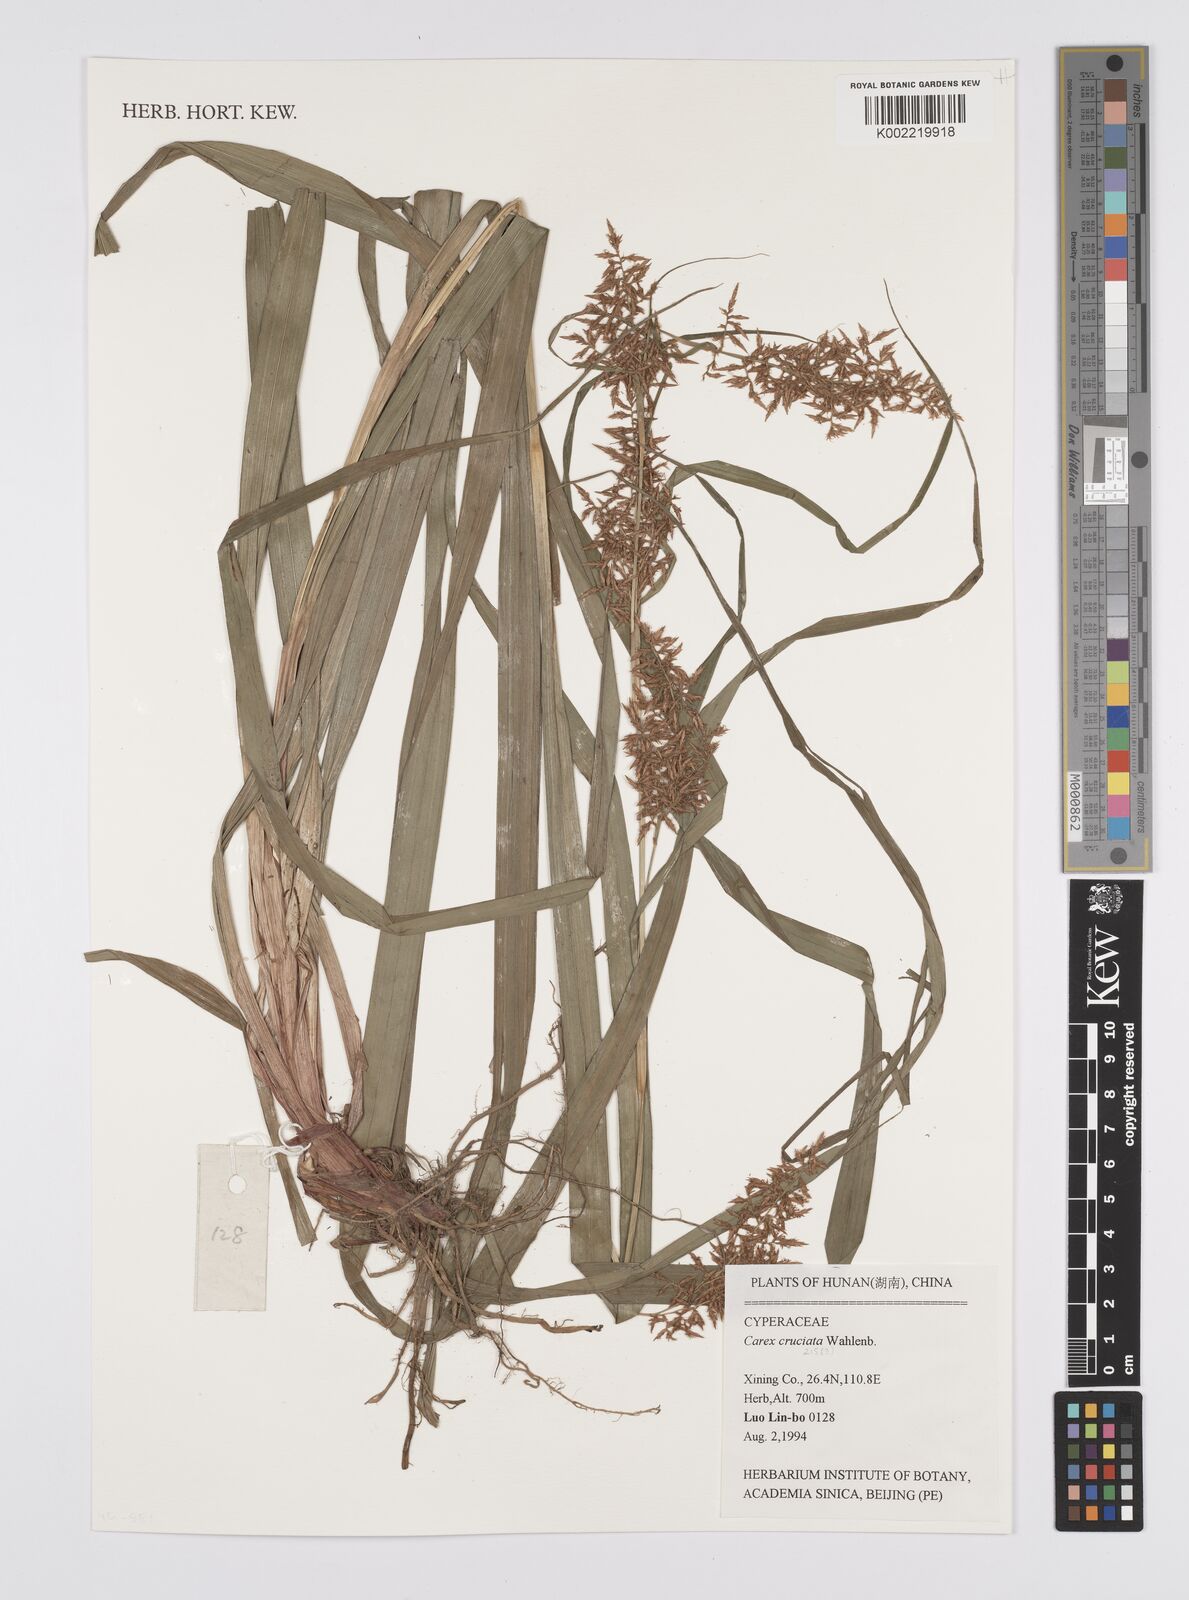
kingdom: Plantae
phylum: Tracheophyta
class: Liliopsida
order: Poales
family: Cyperaceae
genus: Carex
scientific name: Carex cruciata
